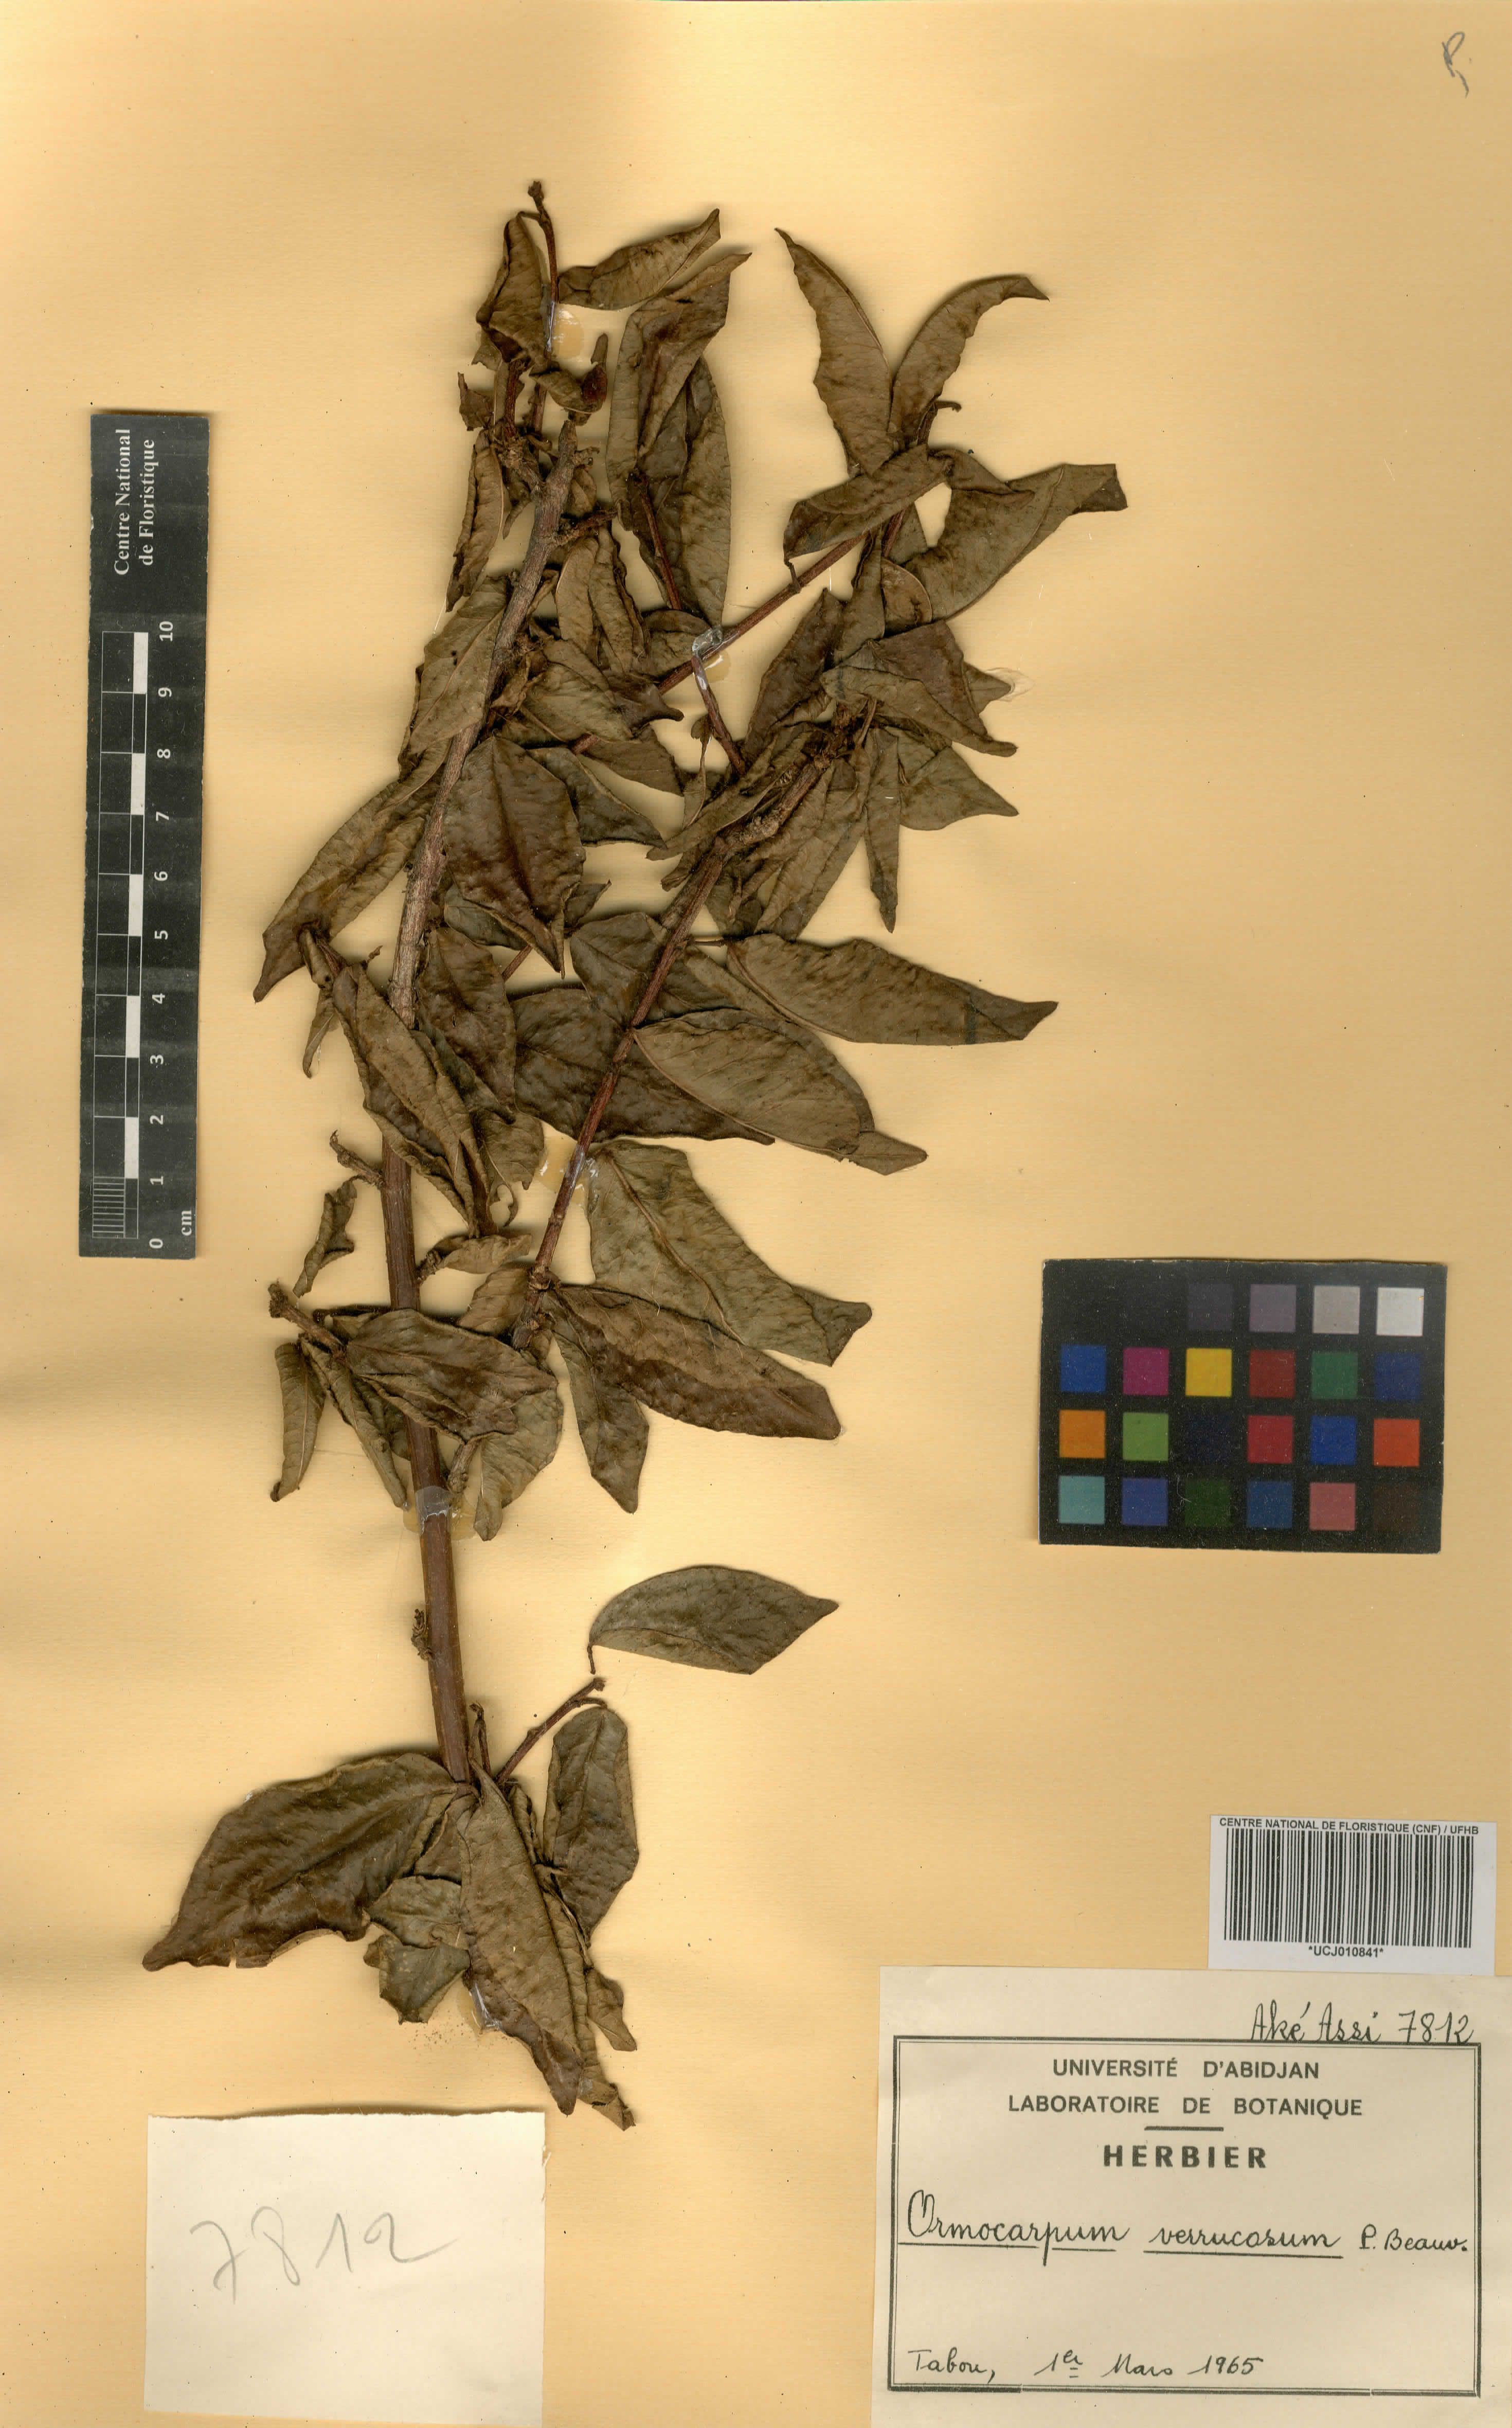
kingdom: Plantae
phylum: Tracheophyta
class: Magnoliopsida
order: Fabales
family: Fabaceae
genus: Ormocarpum
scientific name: Ormocarpum verrucosum
